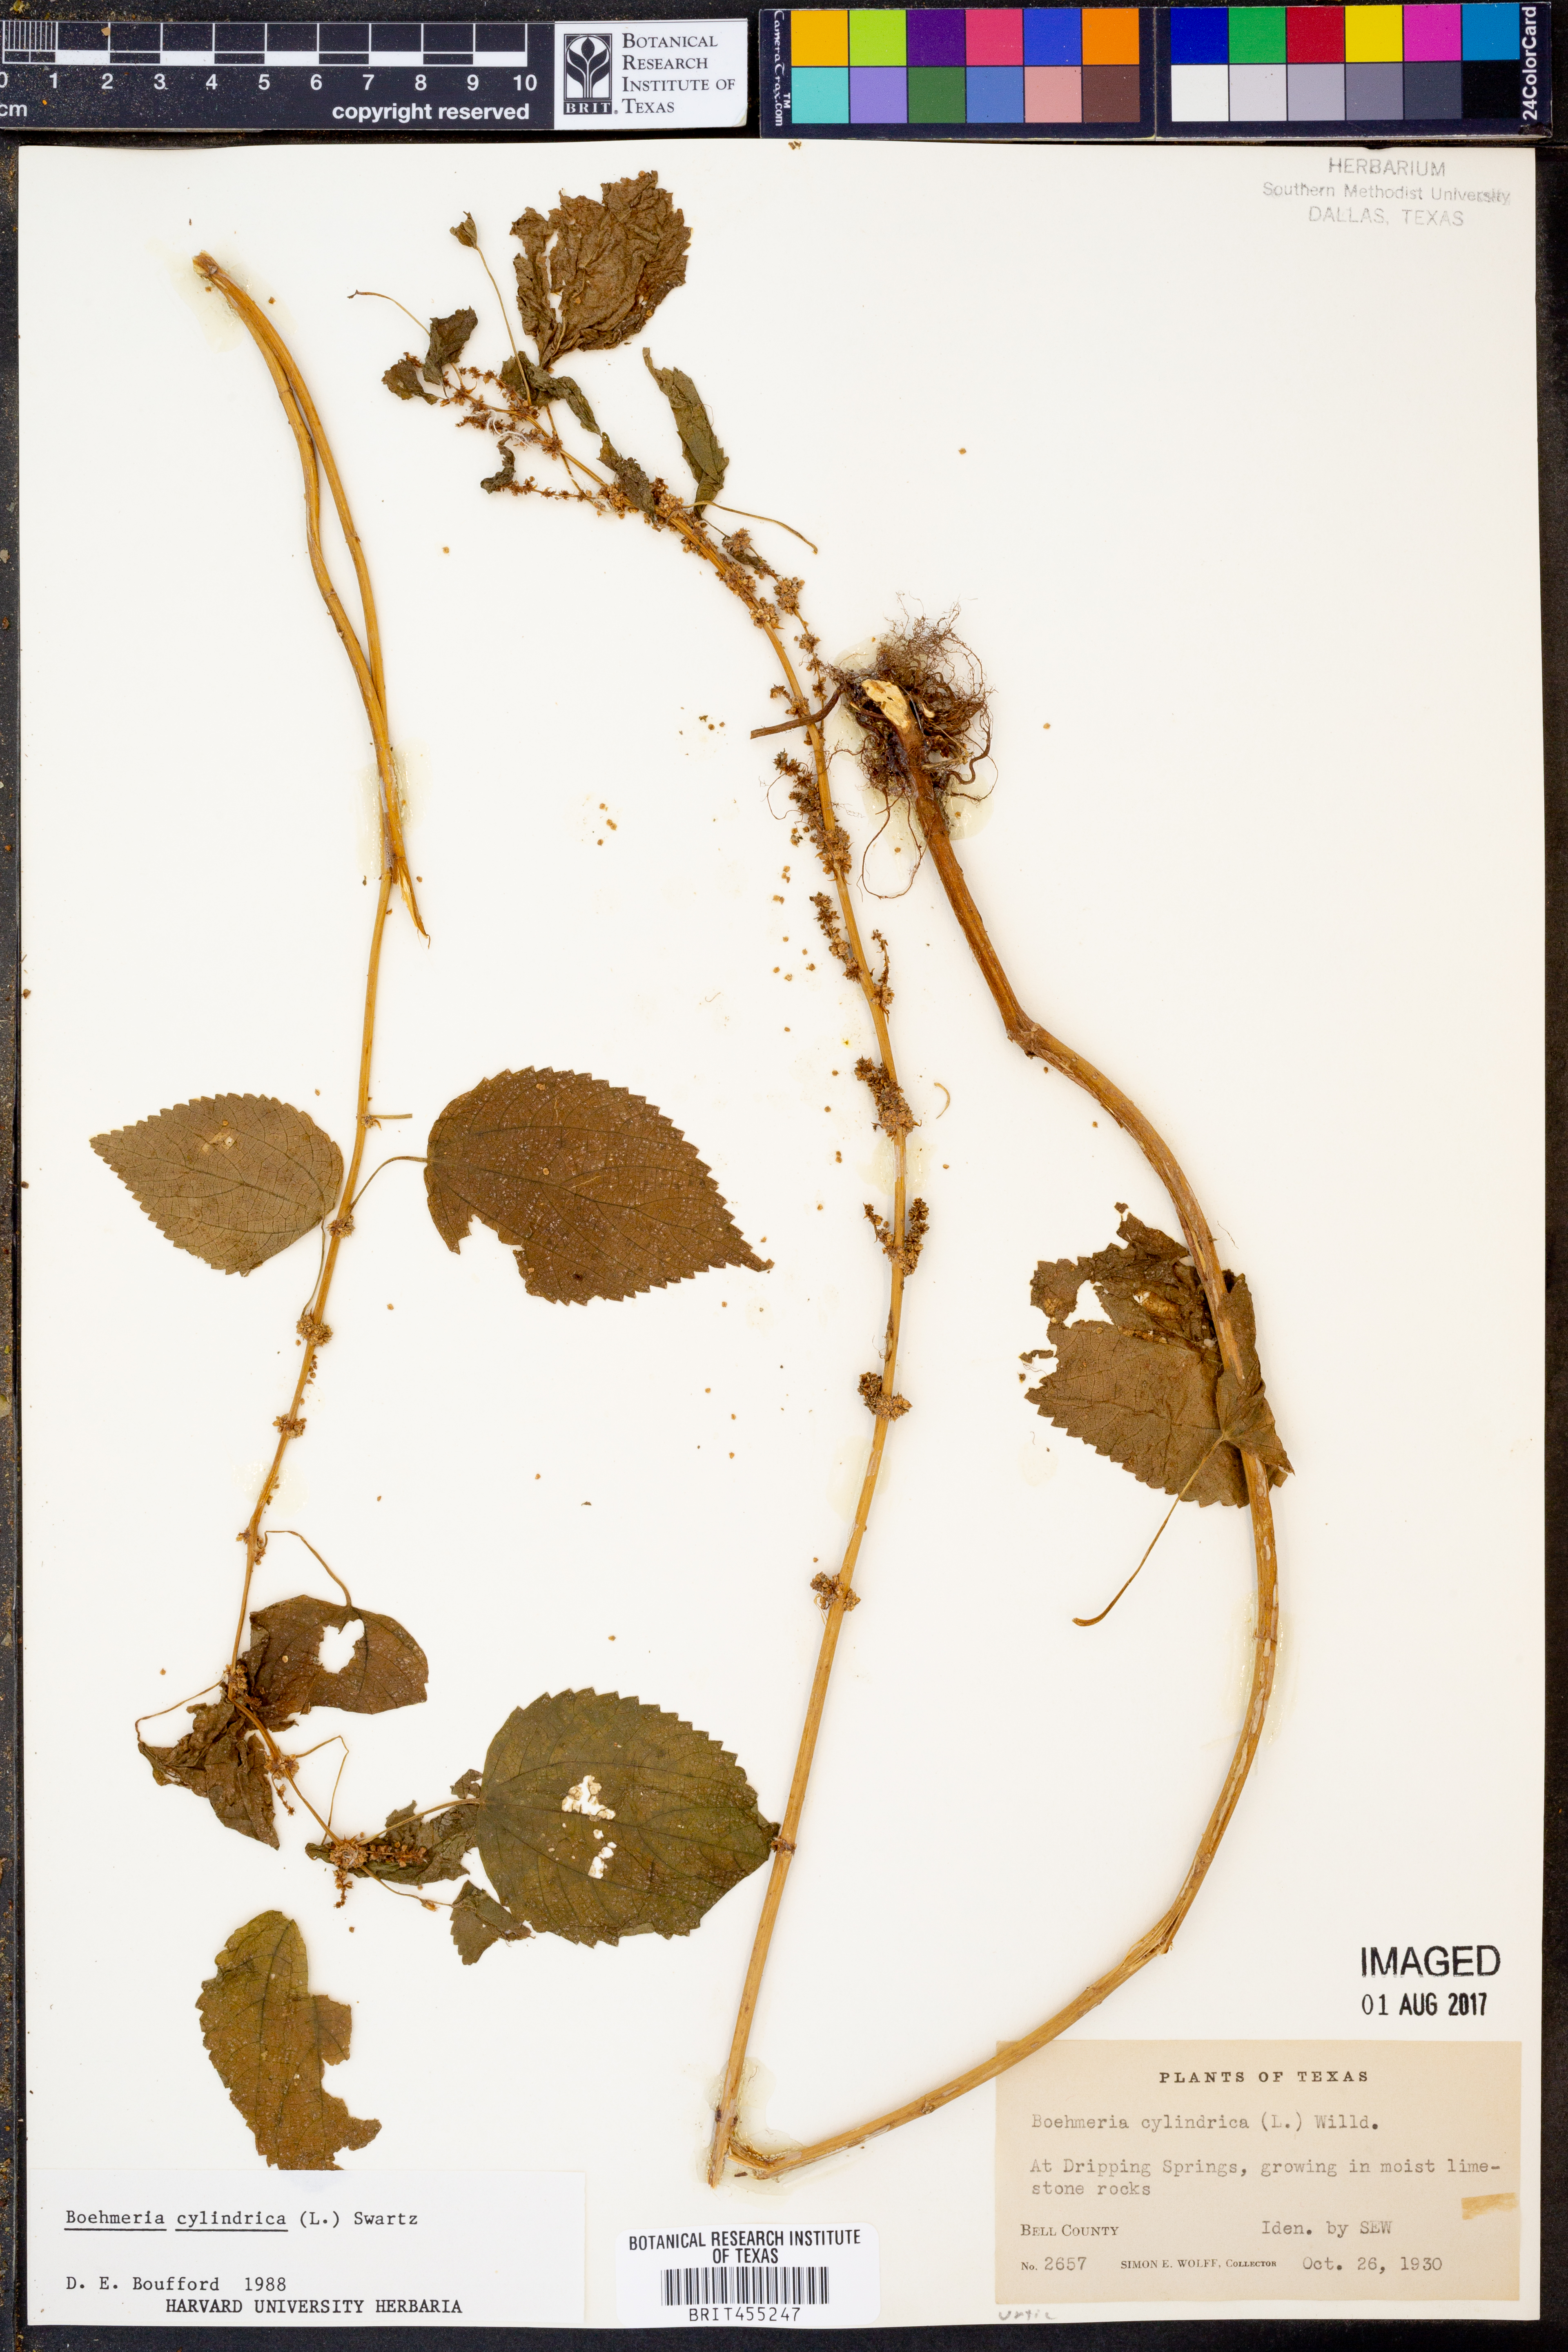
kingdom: Plantae
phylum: Tracheophyta
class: Magnoliopsida
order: Rosales
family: Urticaceae
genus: Boehmeria
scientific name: Boehmeria cylindrica
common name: Bog-hemp
